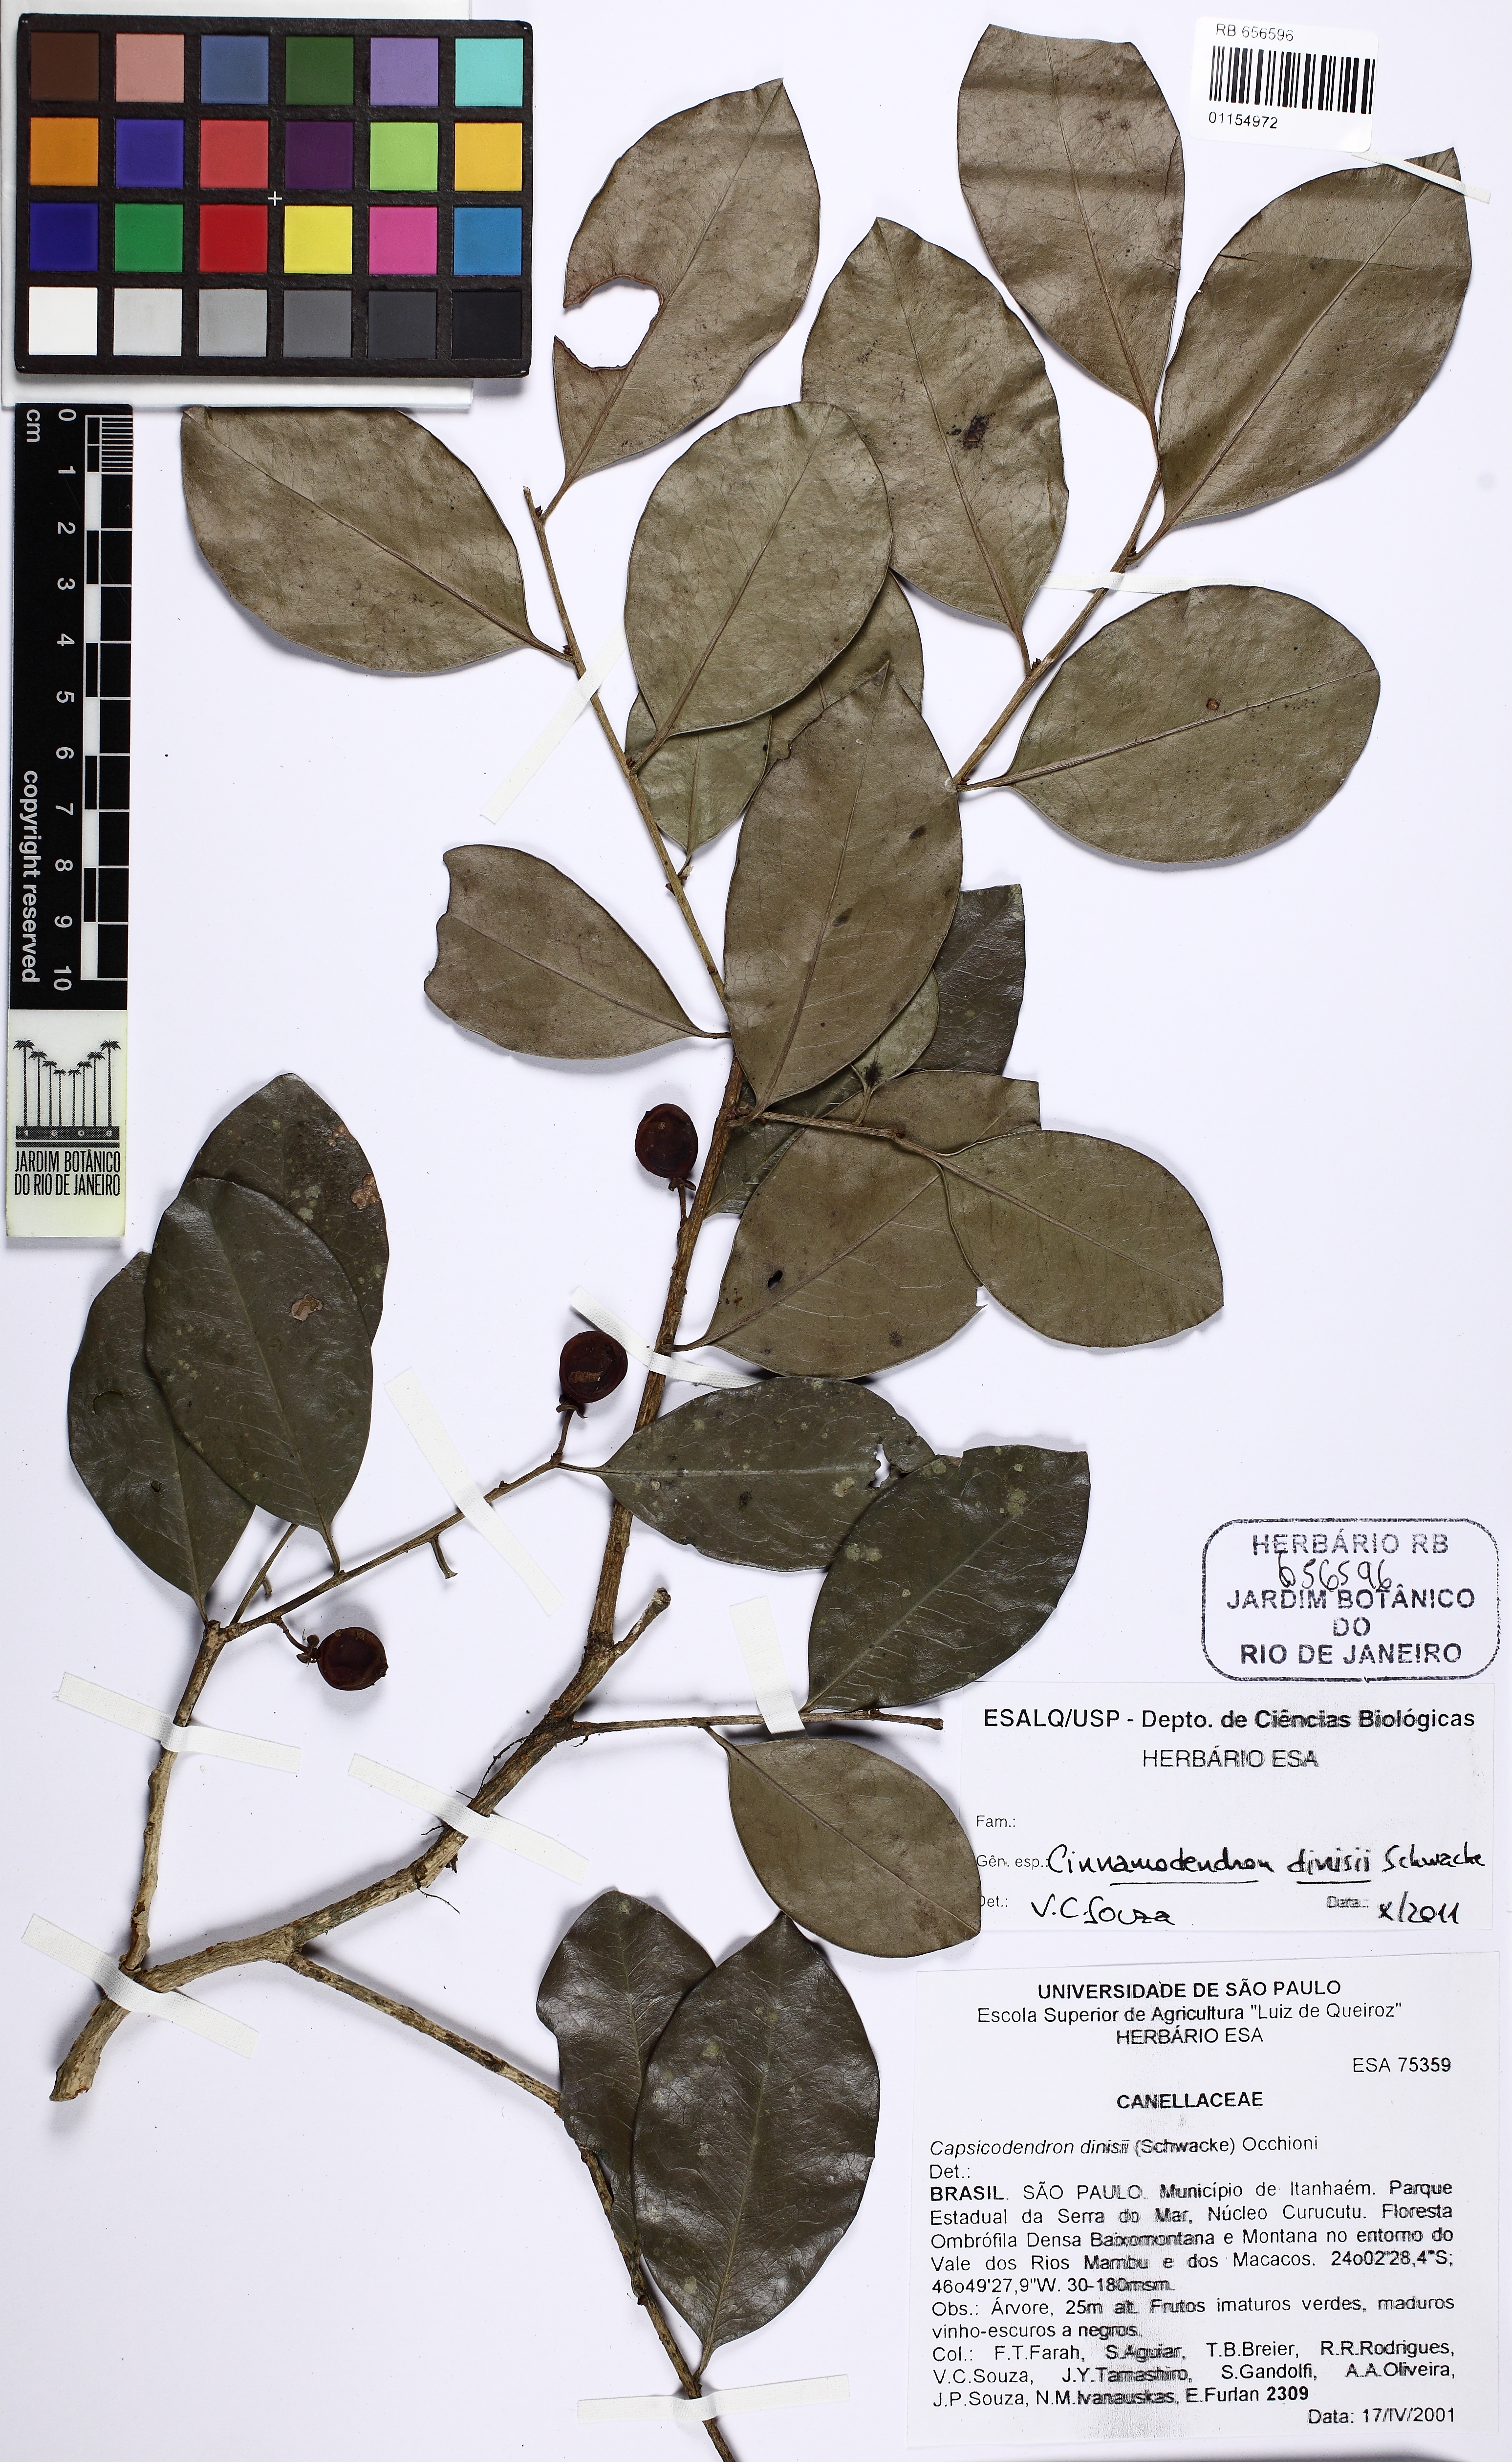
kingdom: Plantae
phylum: Tracheophyta
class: Magnoliopsida
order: Canellales
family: Canellaceae
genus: Cinnamodendron
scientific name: Cinnamodendron dinisii
